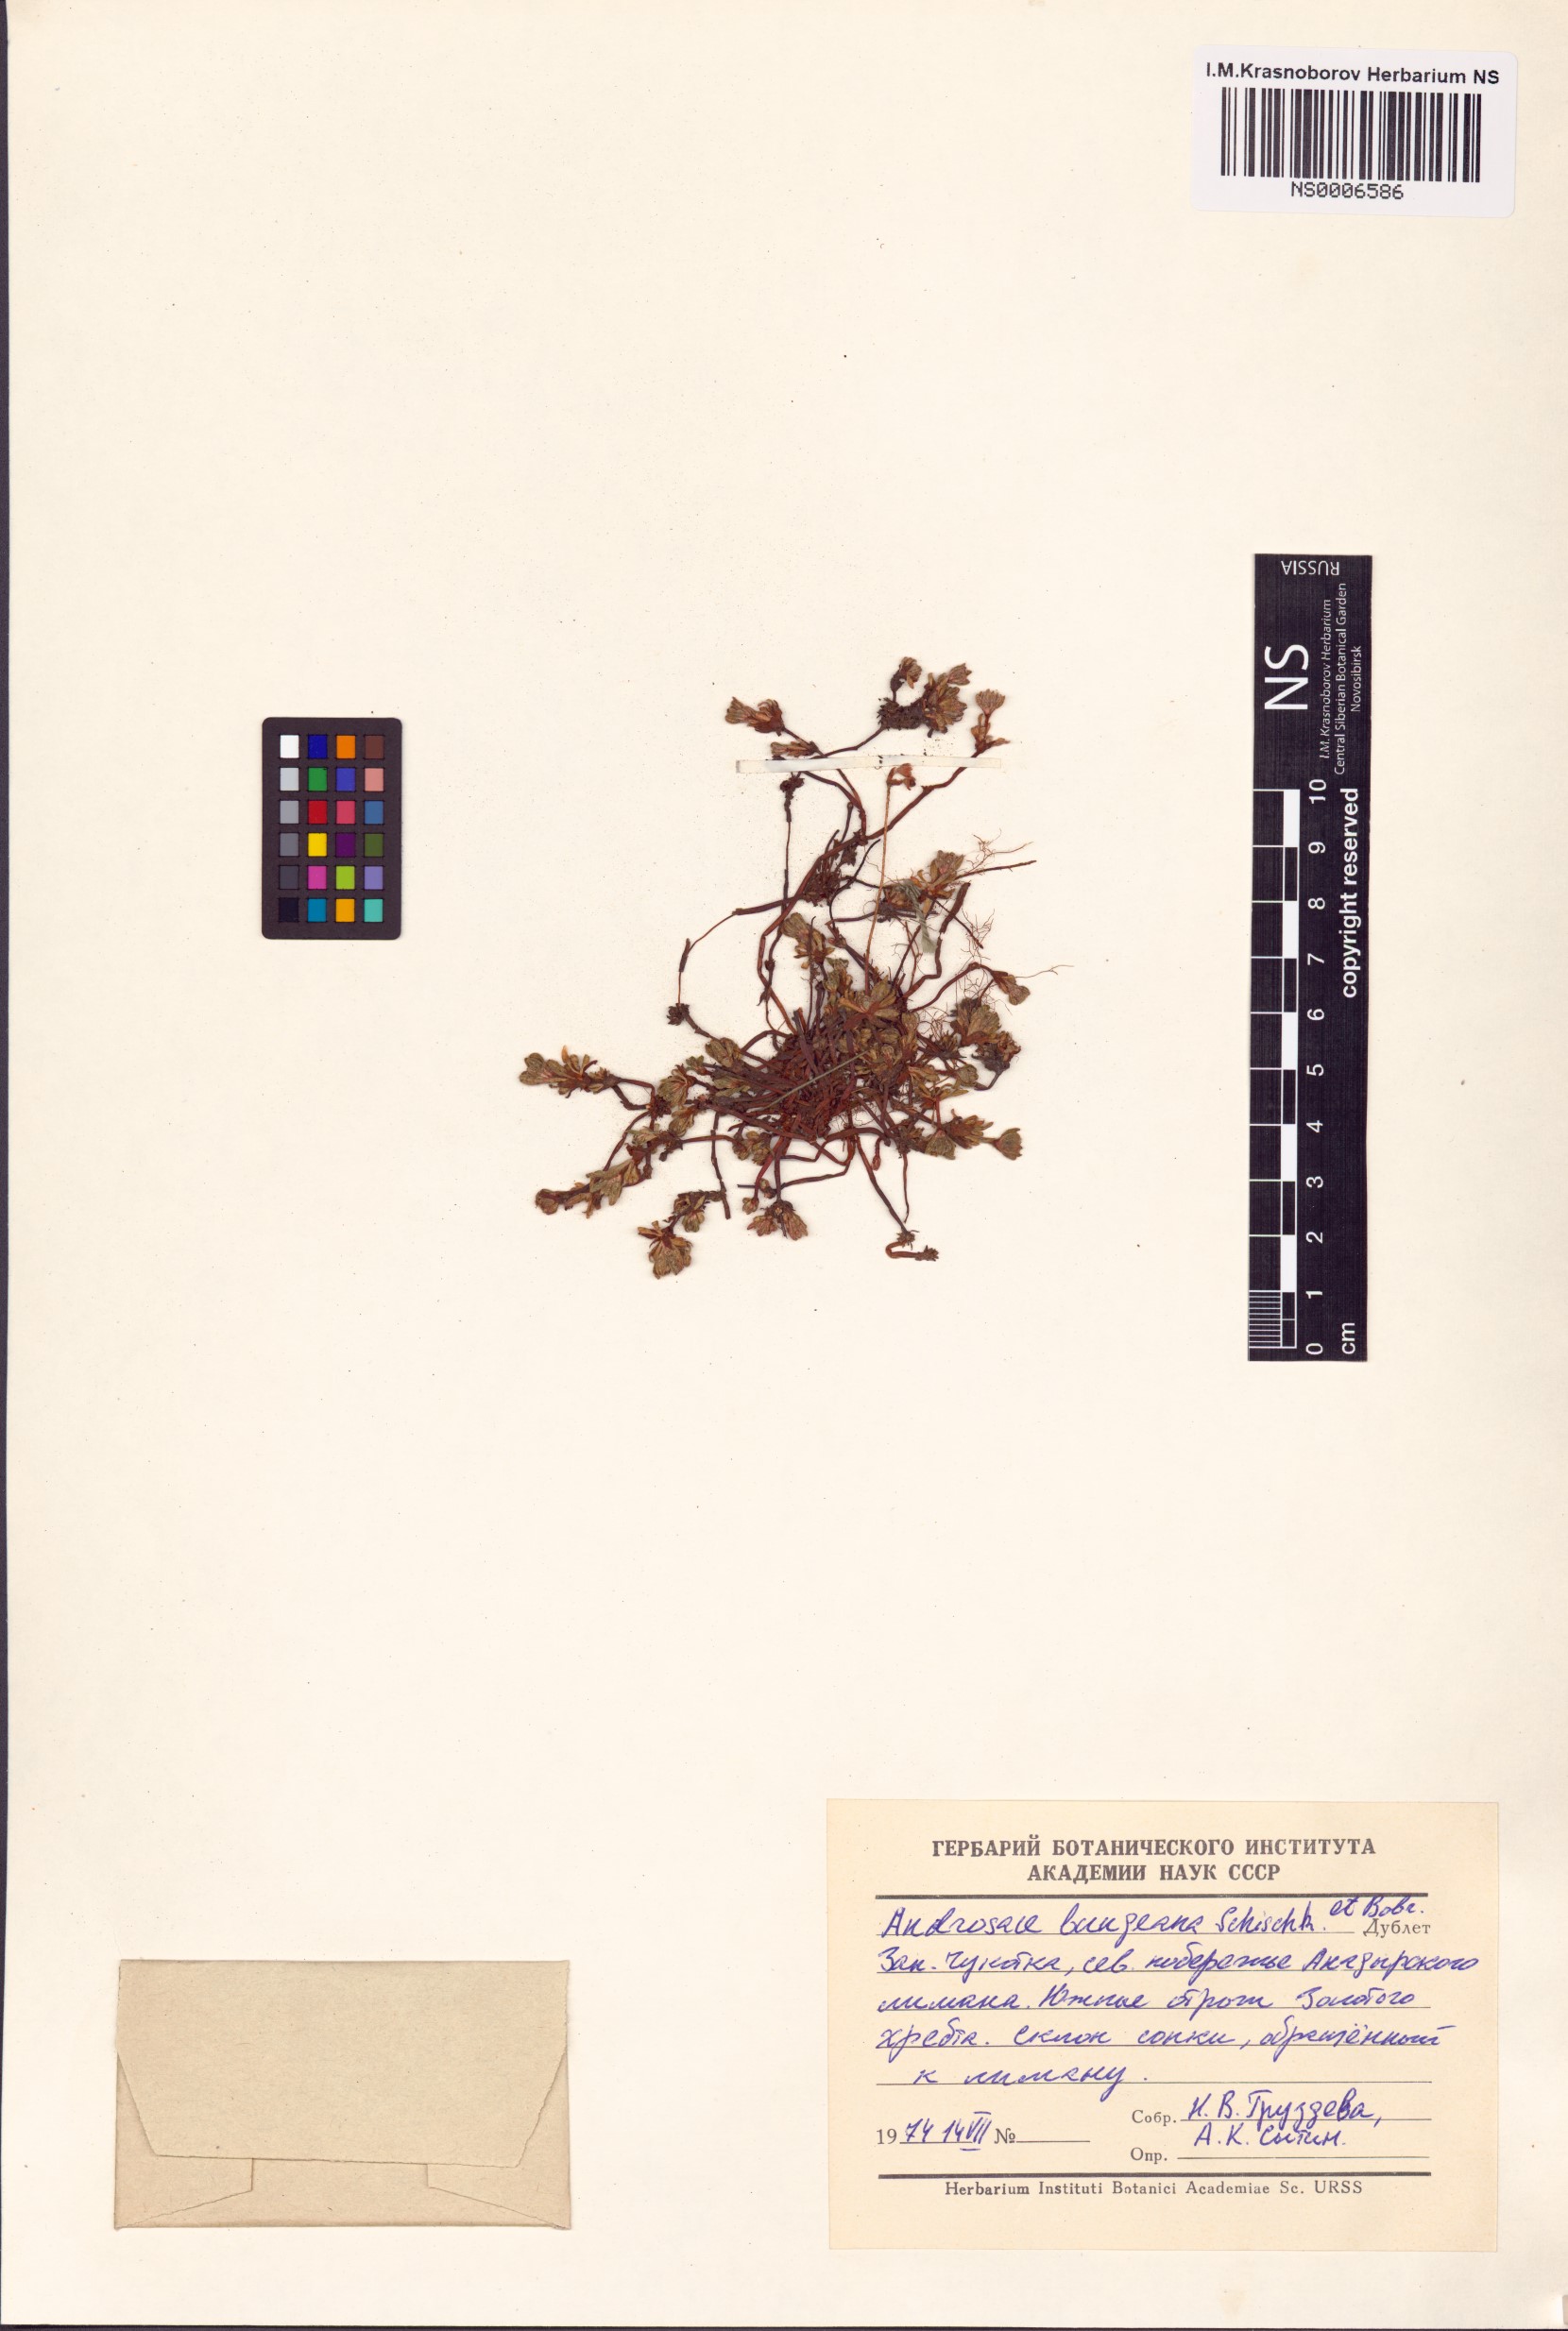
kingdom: Plantae
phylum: Tracheophyta
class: Magnoliopsida
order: Ericales
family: Primulaceae
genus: Androsace
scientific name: Androsace bungeana
